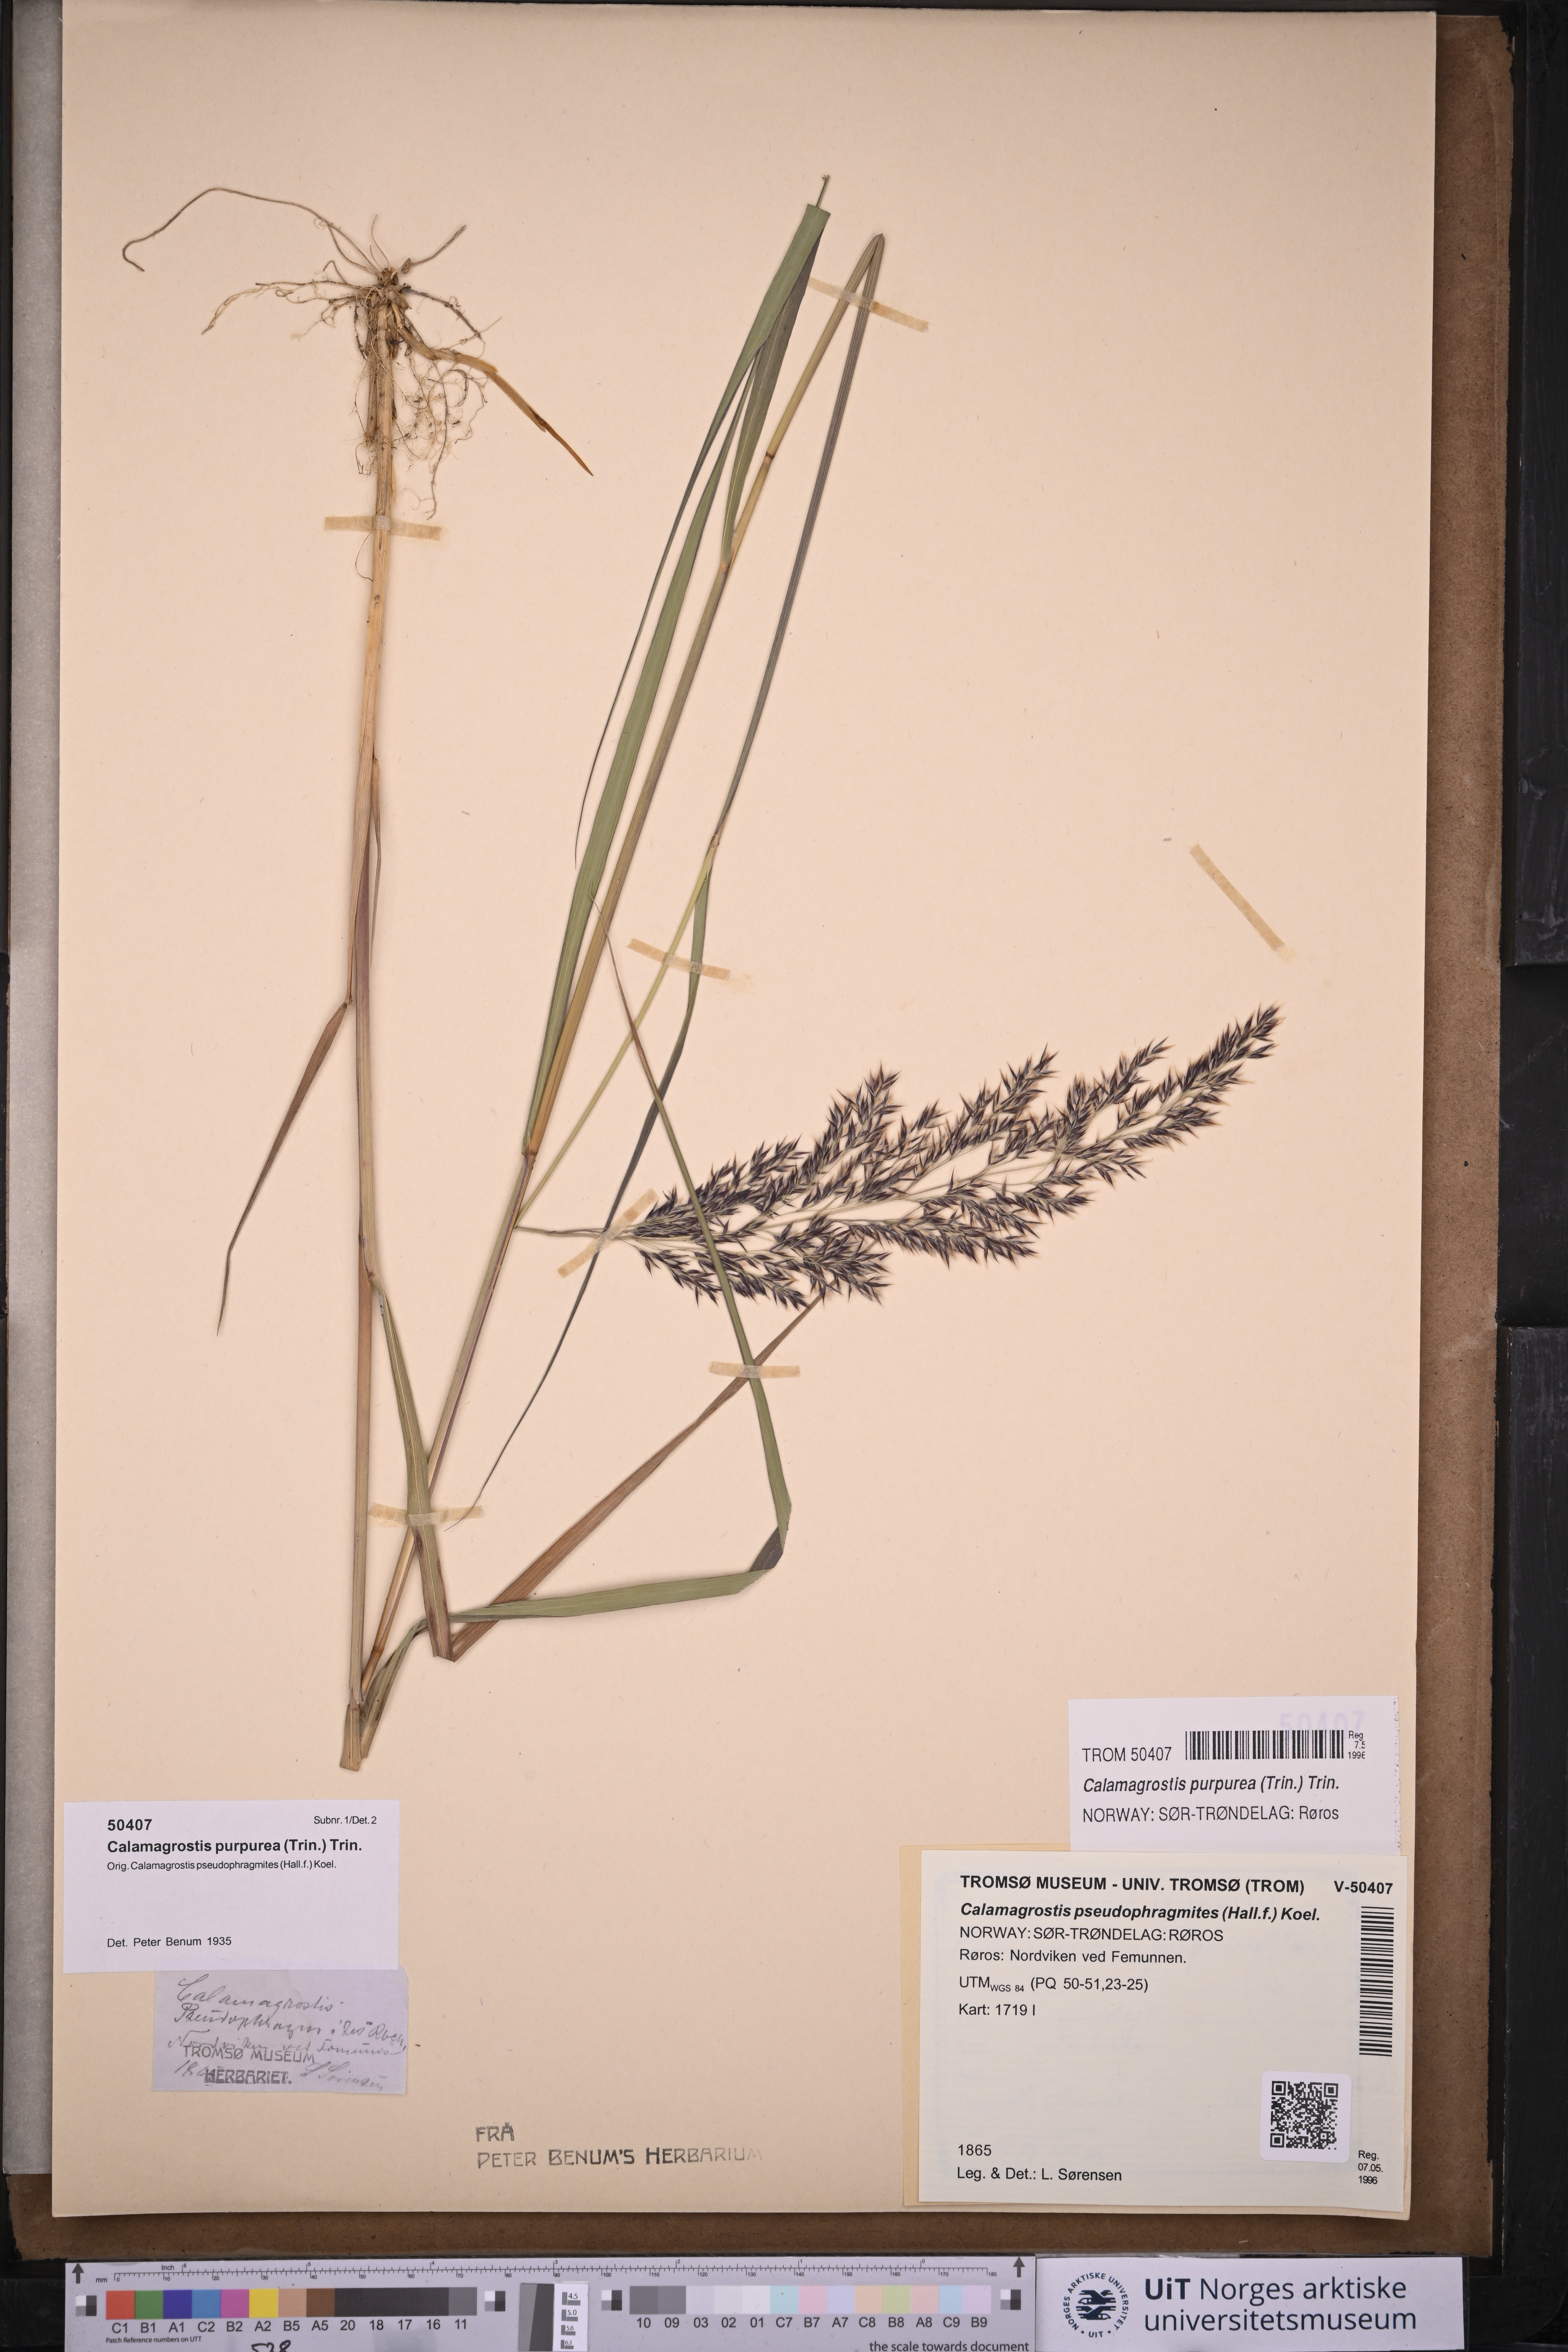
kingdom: Plantae
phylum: Tracheophyta
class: Liliopsida
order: Poales
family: Poaceae
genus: Calamagrostis
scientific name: Calamagrostis purpurea
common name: Scandinavian small-reed
